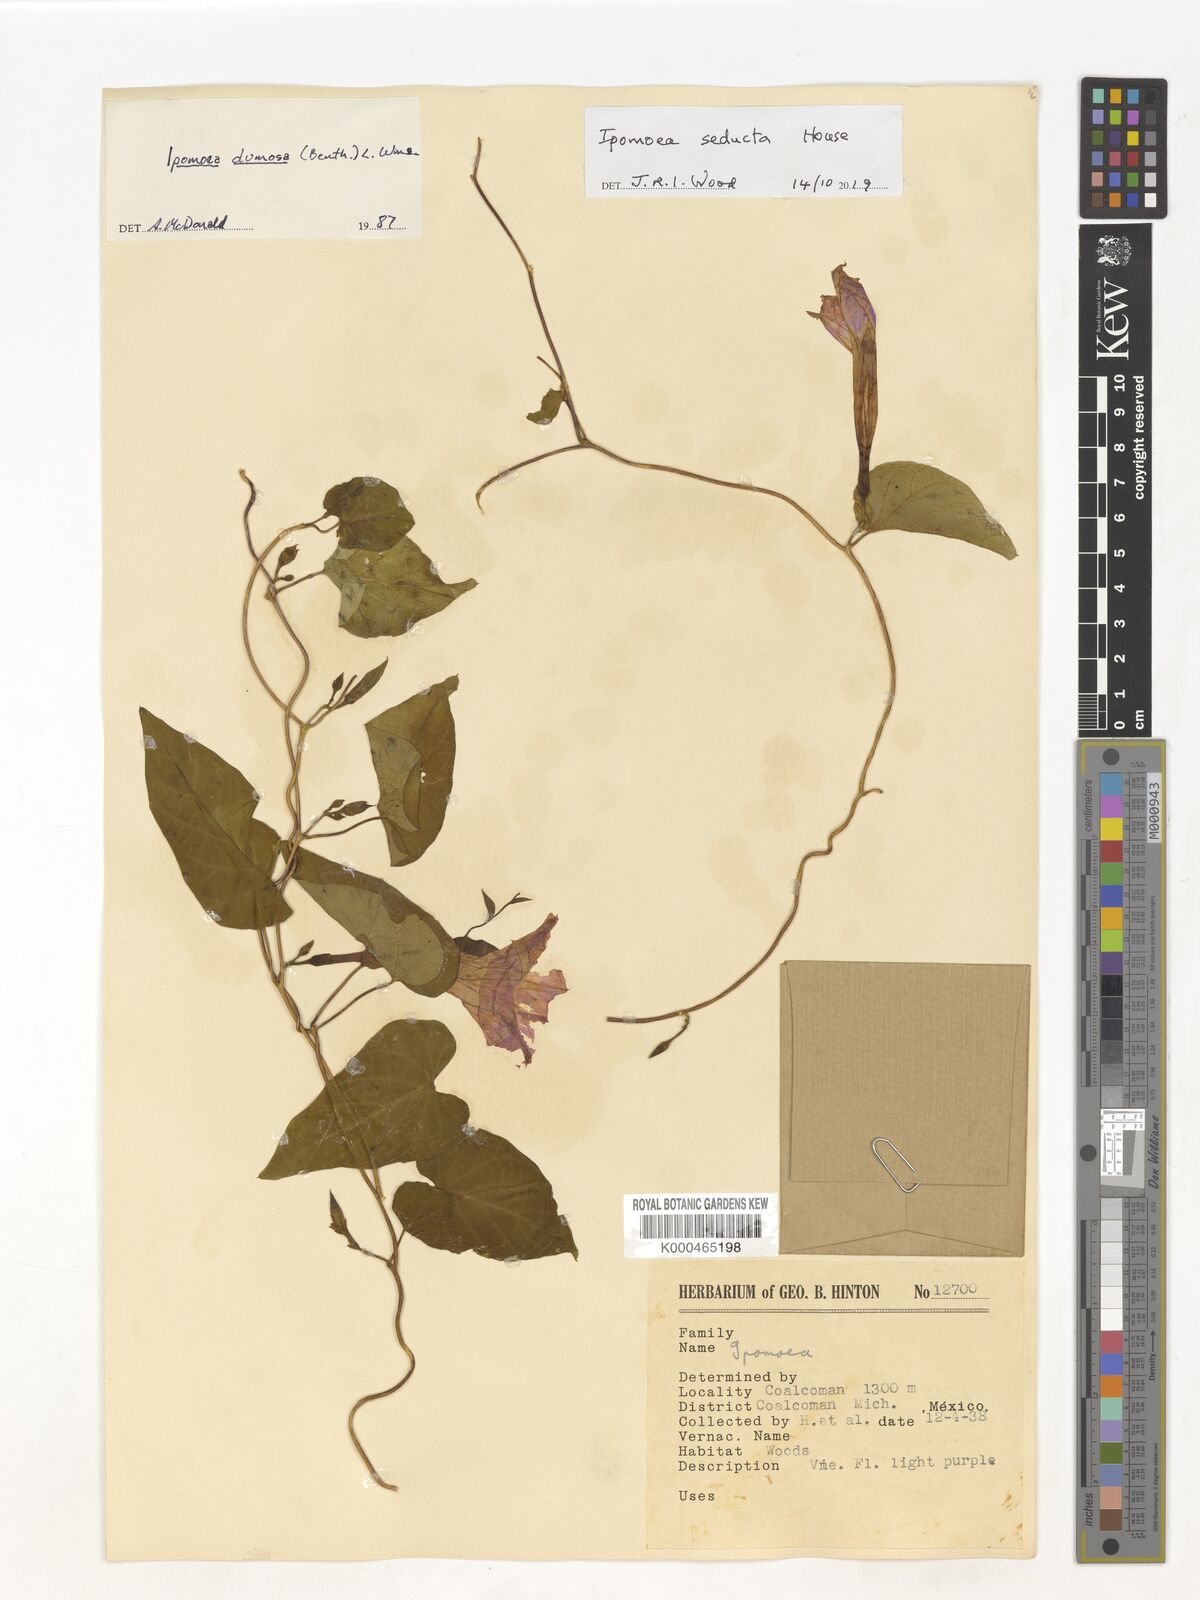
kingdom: Plantae
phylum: Tracheophyta
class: Magnoliopsida
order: Solanales
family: Convolvulaceae
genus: Ipomoea
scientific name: Ipomoea dumosa
